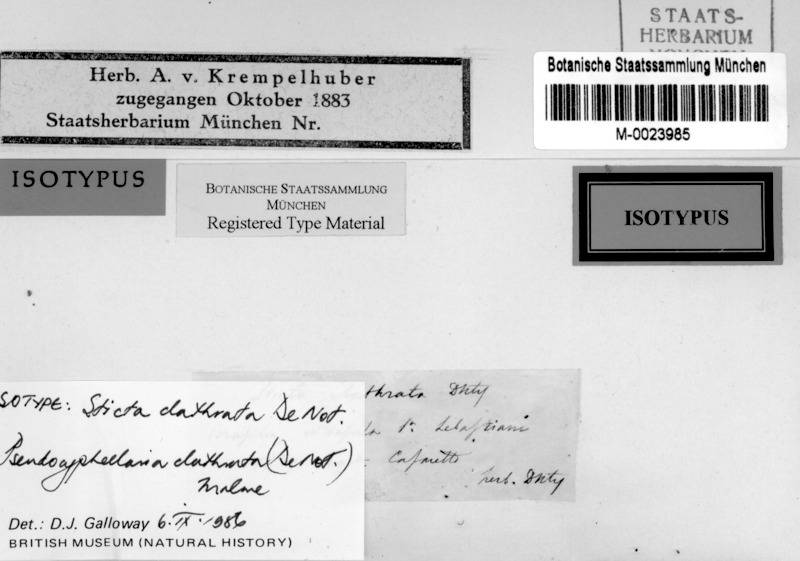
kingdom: Fungi
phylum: Ascomycota
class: Lecanoromycetes
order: Peltigerales
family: Lobariaceae
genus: Pseudocyphellaria
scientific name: Pseudocyphellaria clathrata
